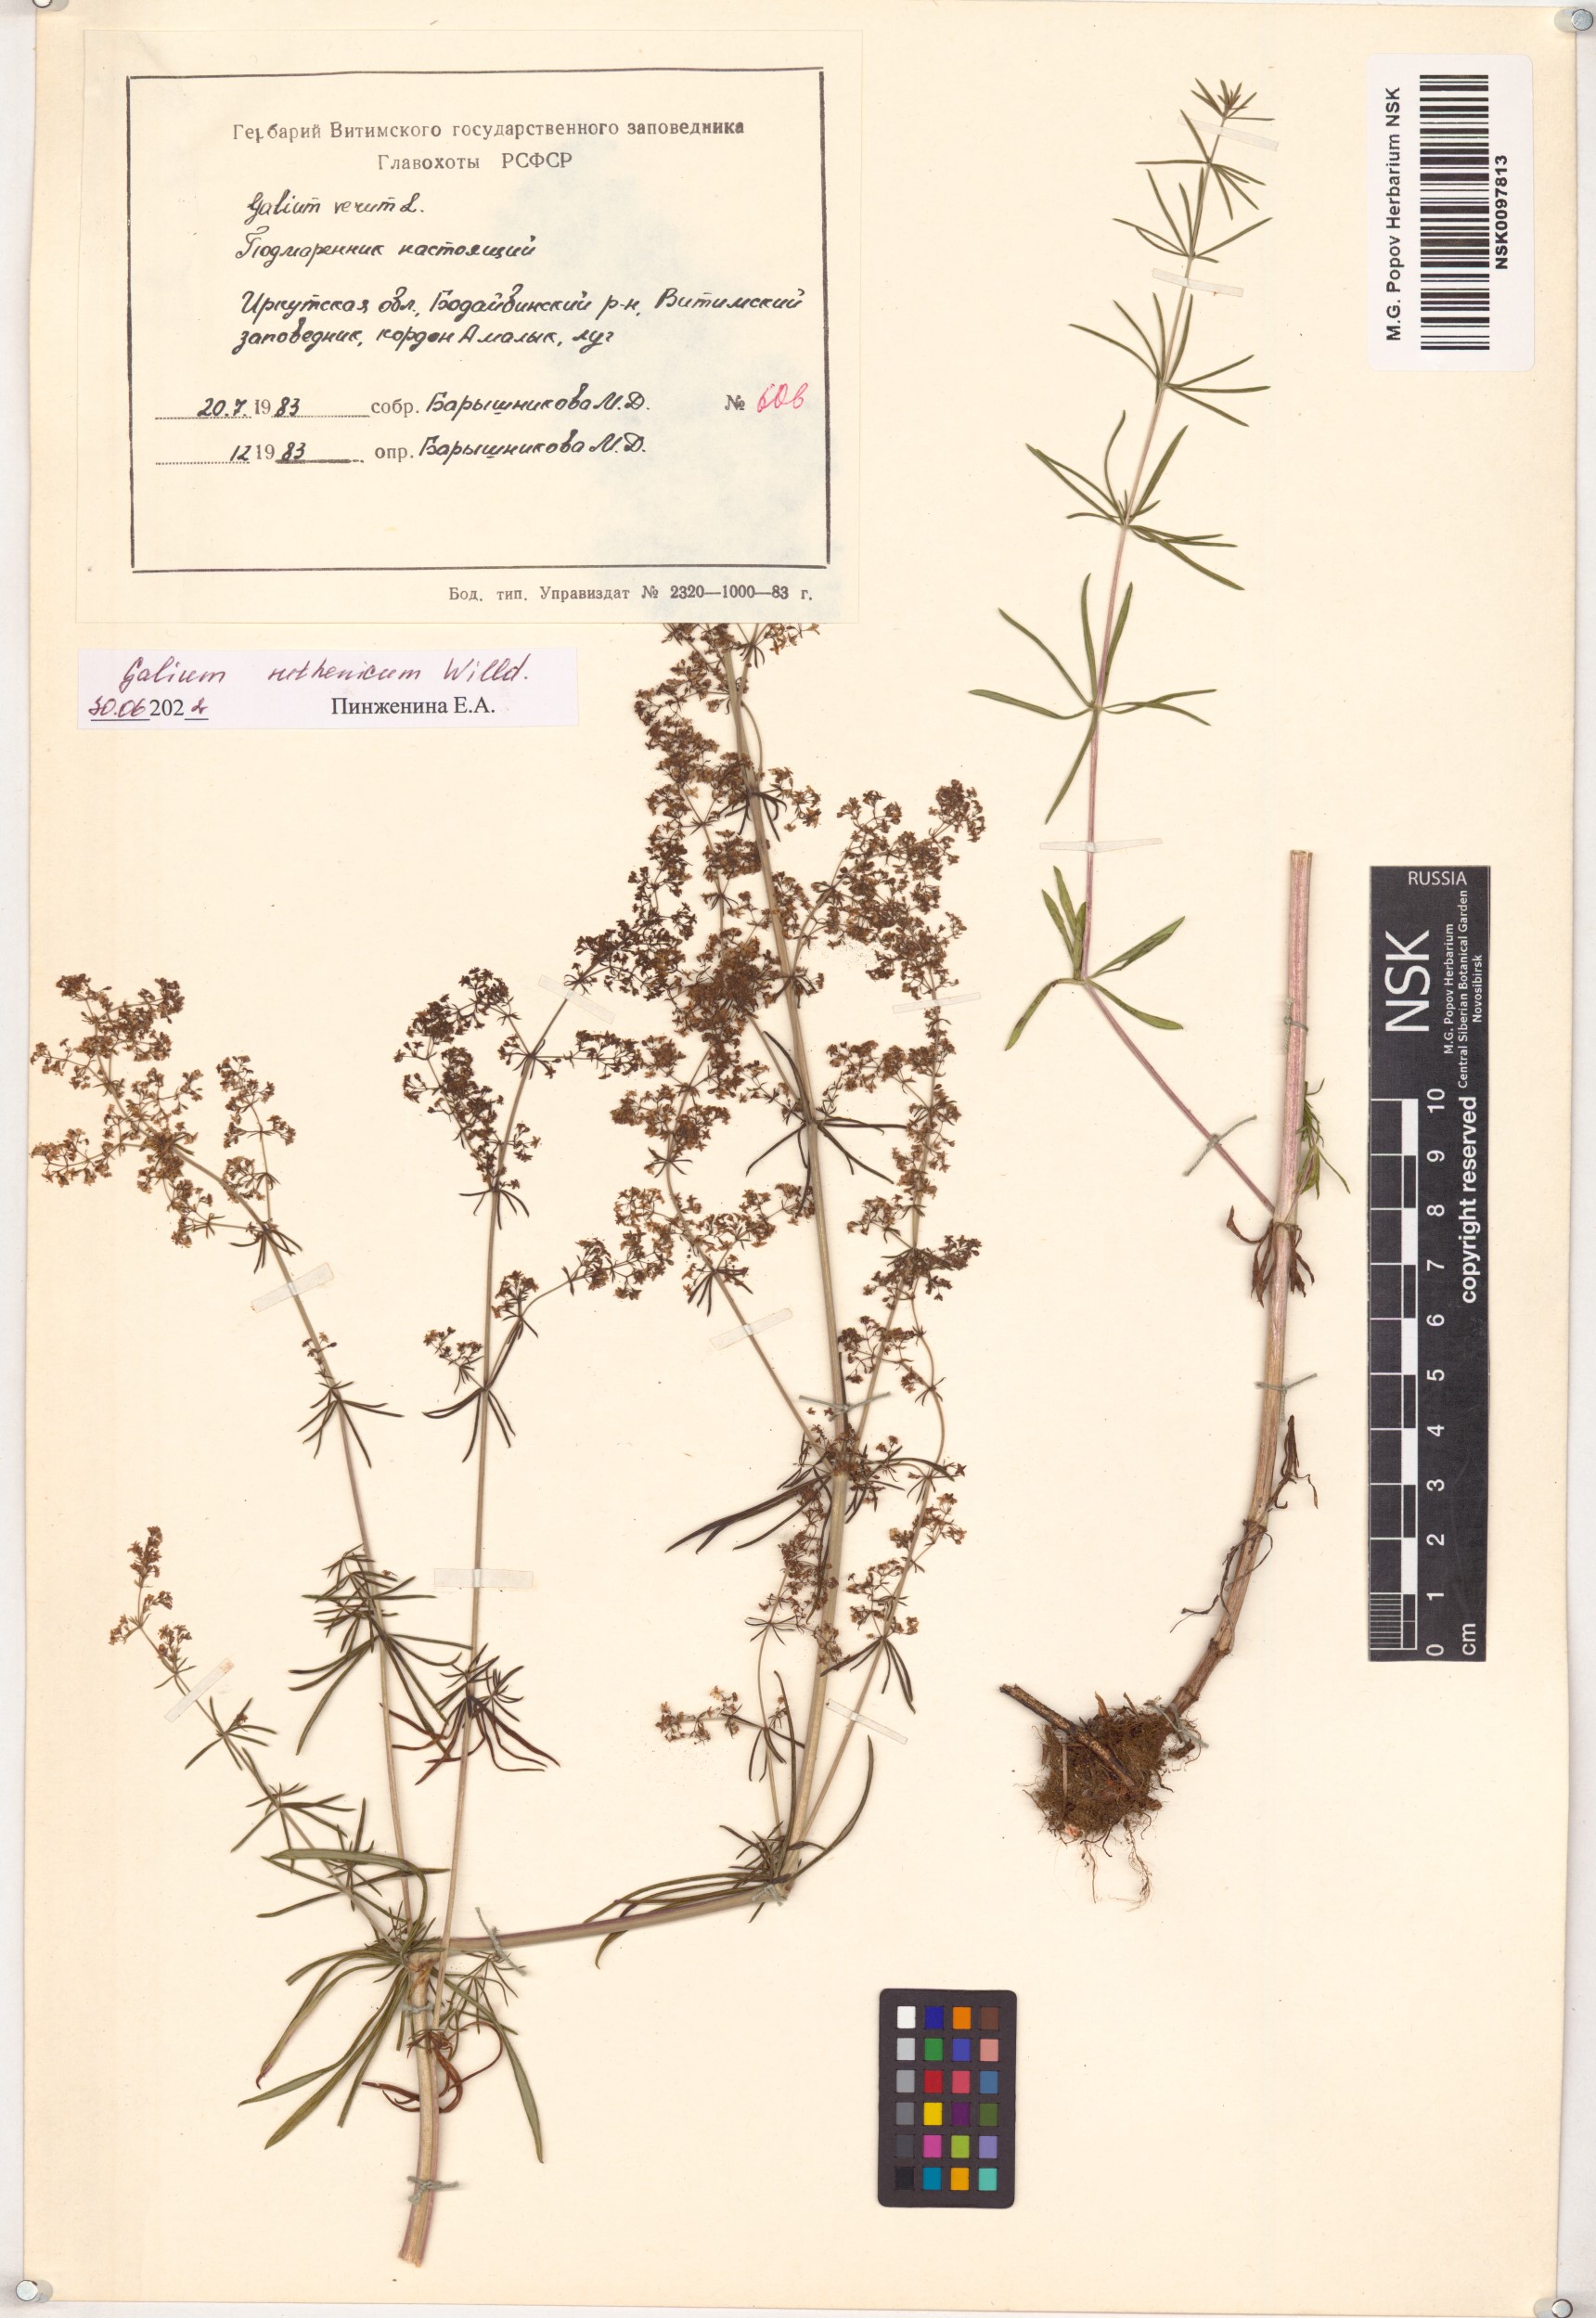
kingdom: Plantae
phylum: Tracheophyta
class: Magnoliopsida
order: Gentianales
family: Rubiaceae
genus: Galium
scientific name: Galium verum
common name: Lady's bedstraw
